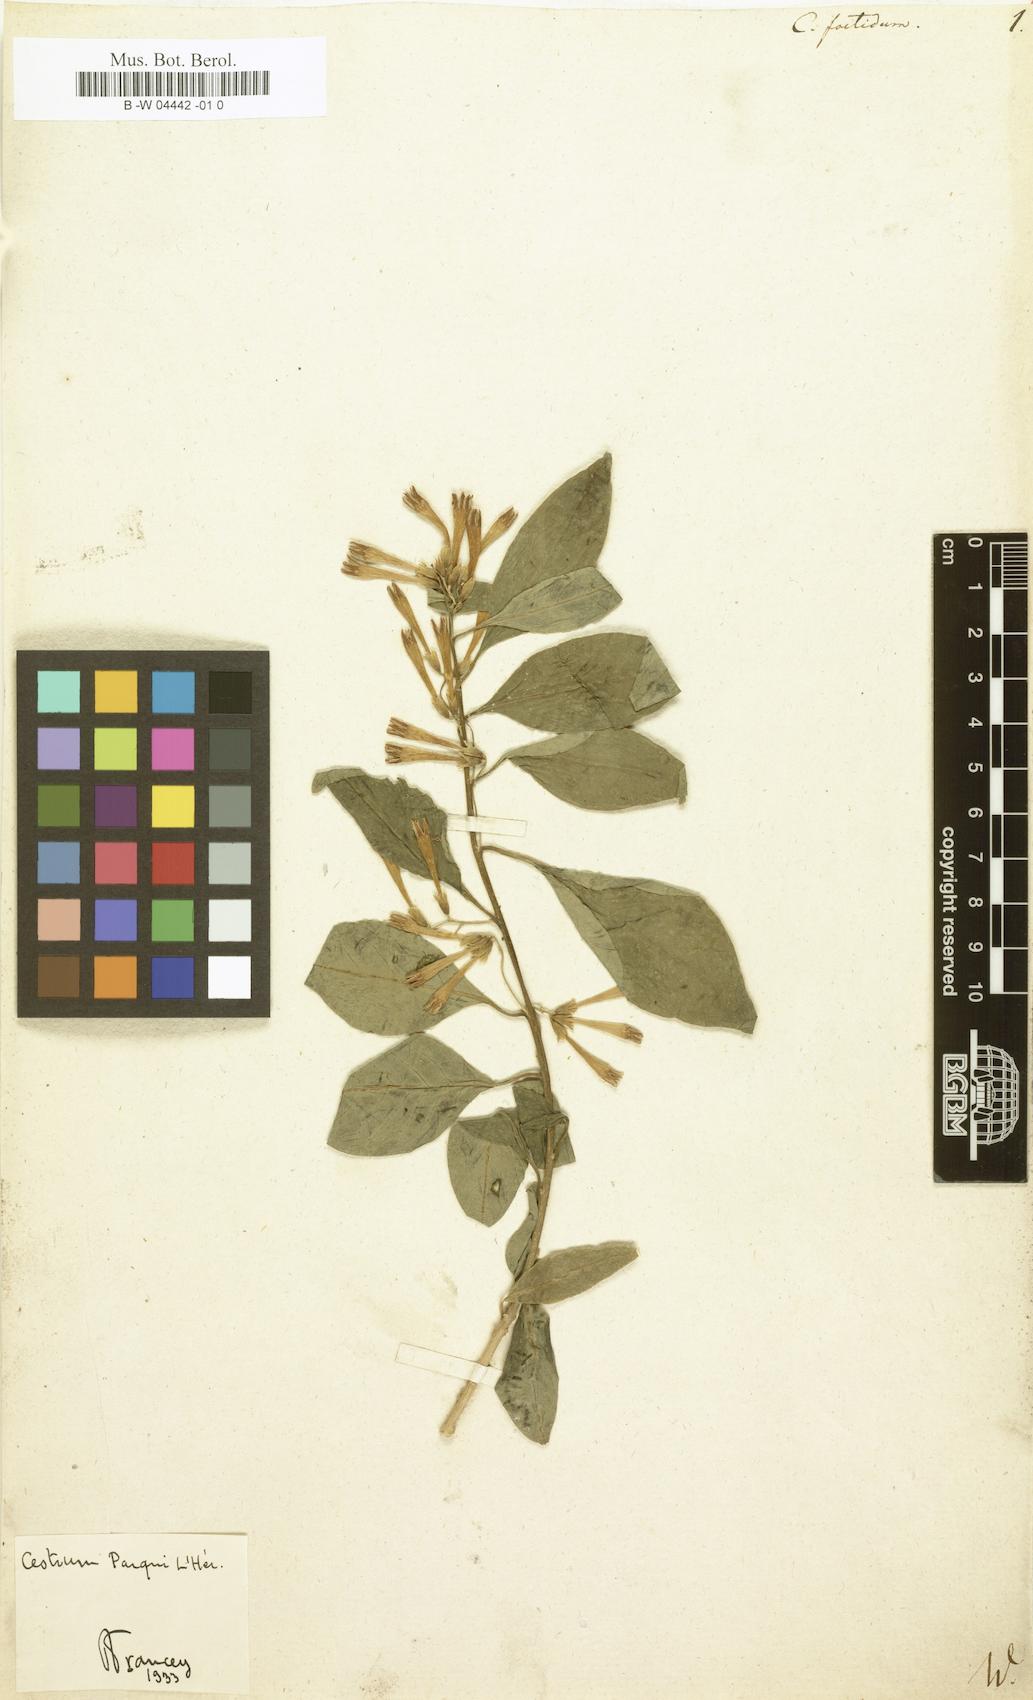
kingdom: Plantae
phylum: Tracheophyta
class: Magnoliopsida
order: Solanales
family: Solanaceae
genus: Cestrum
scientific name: Cestrum
